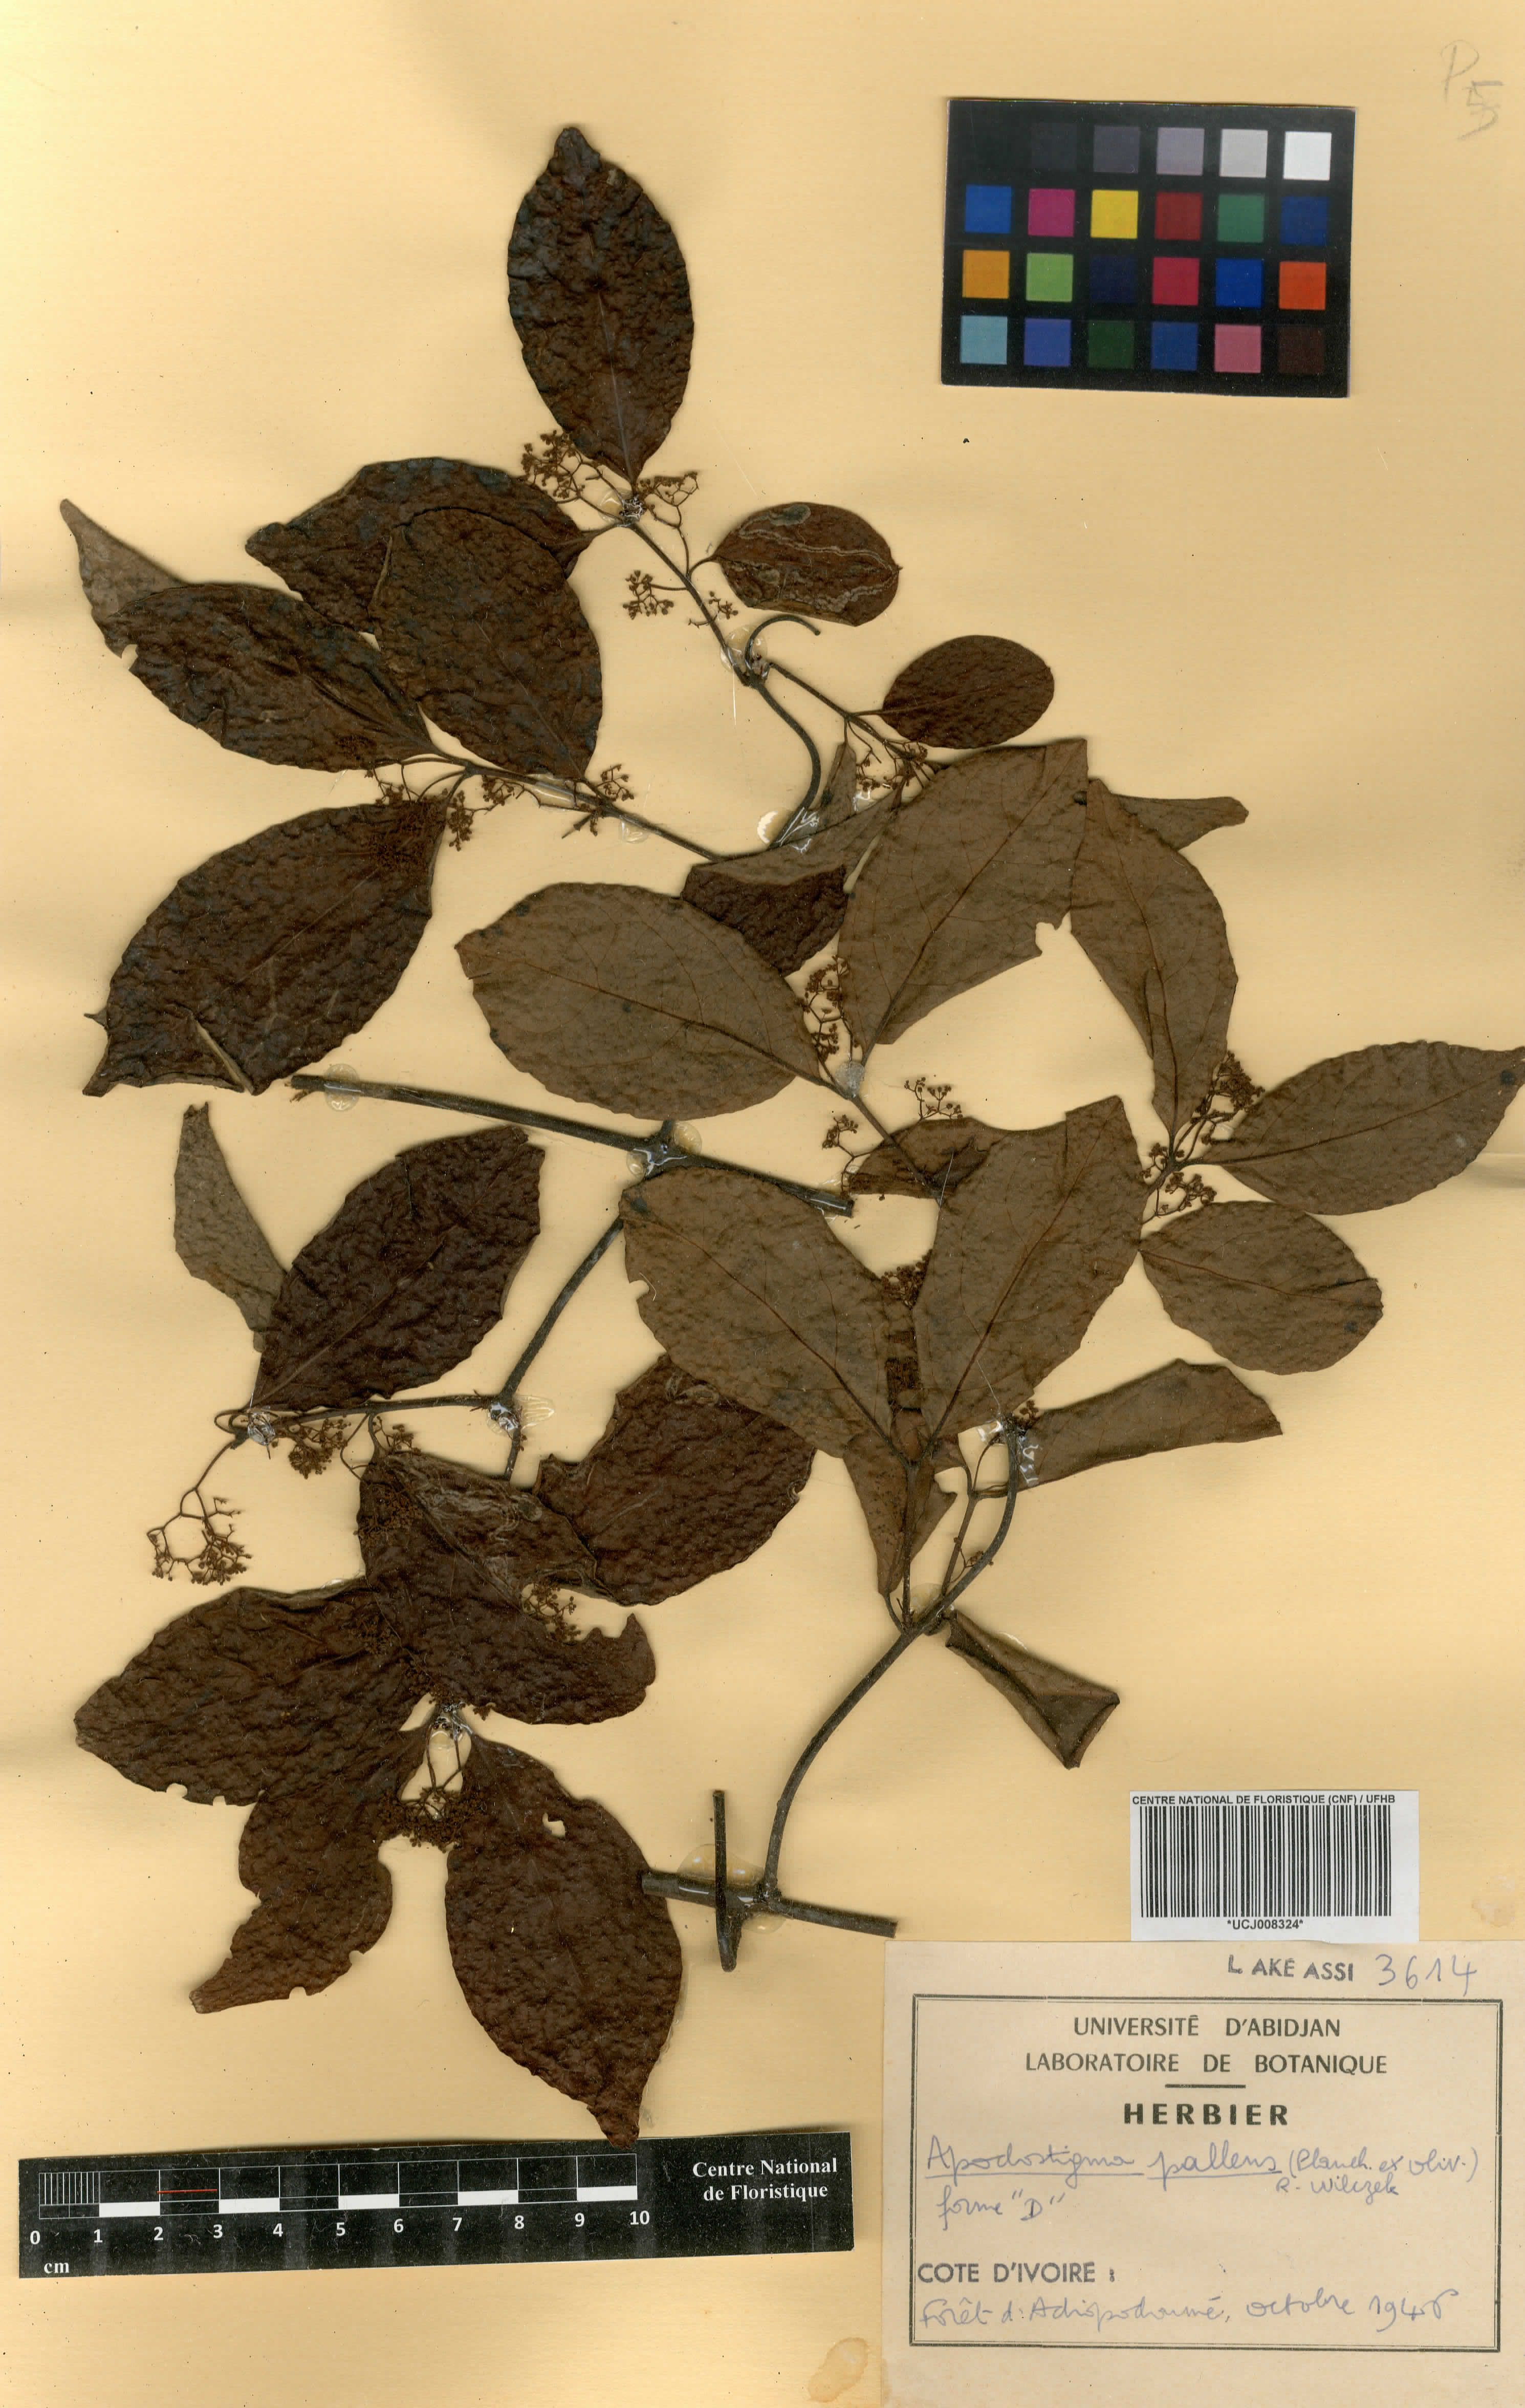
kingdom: Plantae
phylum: Tracheophyta
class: Magnoliopsida
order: Celastrales
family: Celastraceae
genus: Apodostigma
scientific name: Apodostigma pallens
